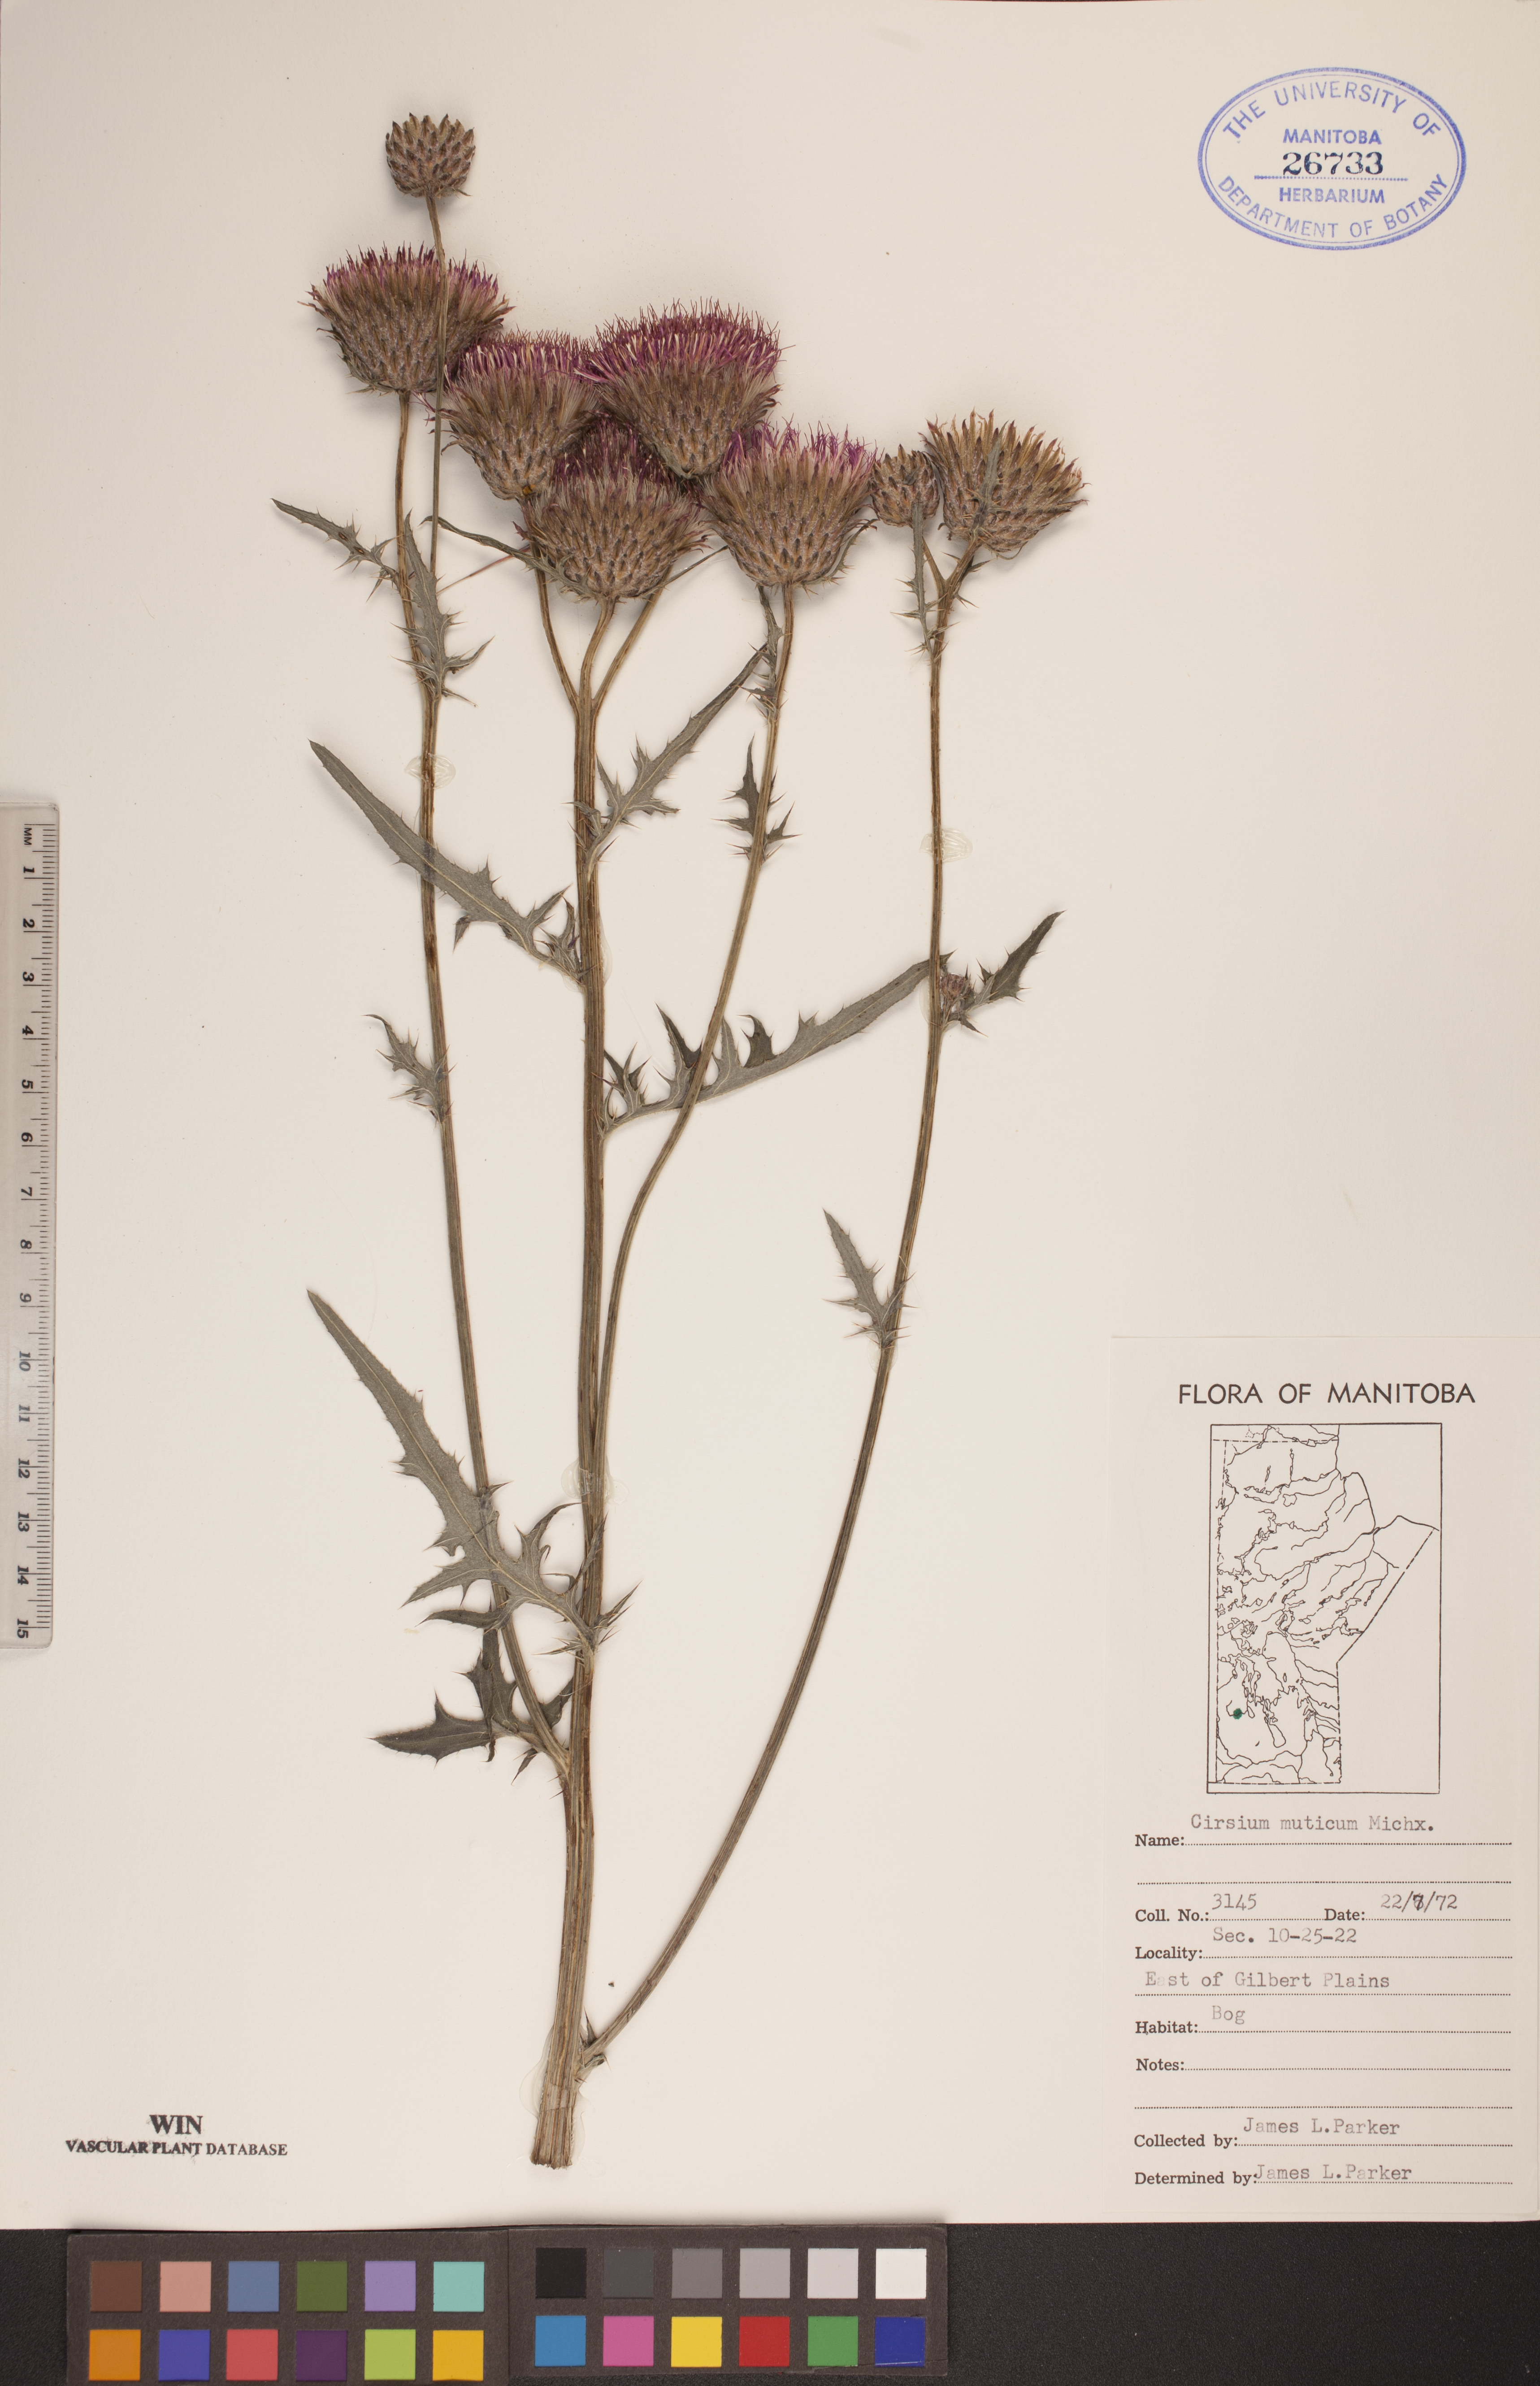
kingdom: Plantae
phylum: Tracheophyta
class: Magnoliopsida
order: Asterales
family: Asteraceae
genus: Cirsium
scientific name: Cirsium muticum
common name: Dunce-nettle
